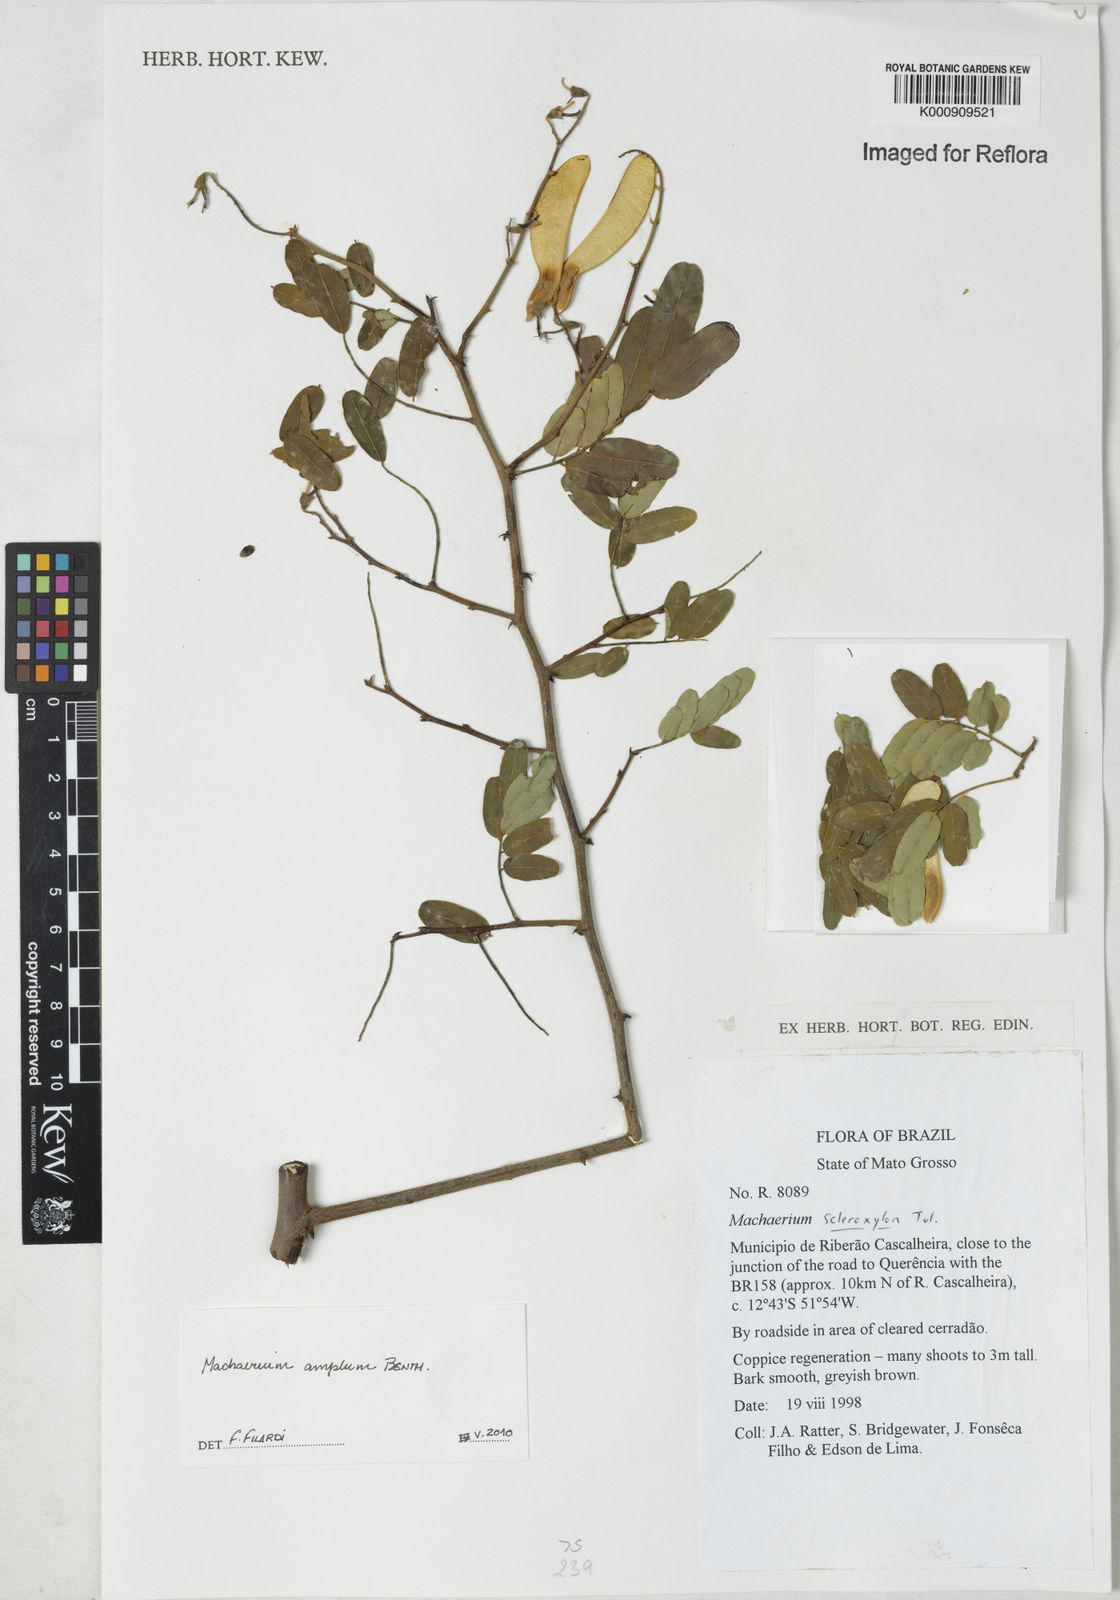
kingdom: Plantae
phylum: Tracheophyta
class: Magnoliopsida
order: Fabales
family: Fabaceae
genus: Machaerium
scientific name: Machaerium amplum
